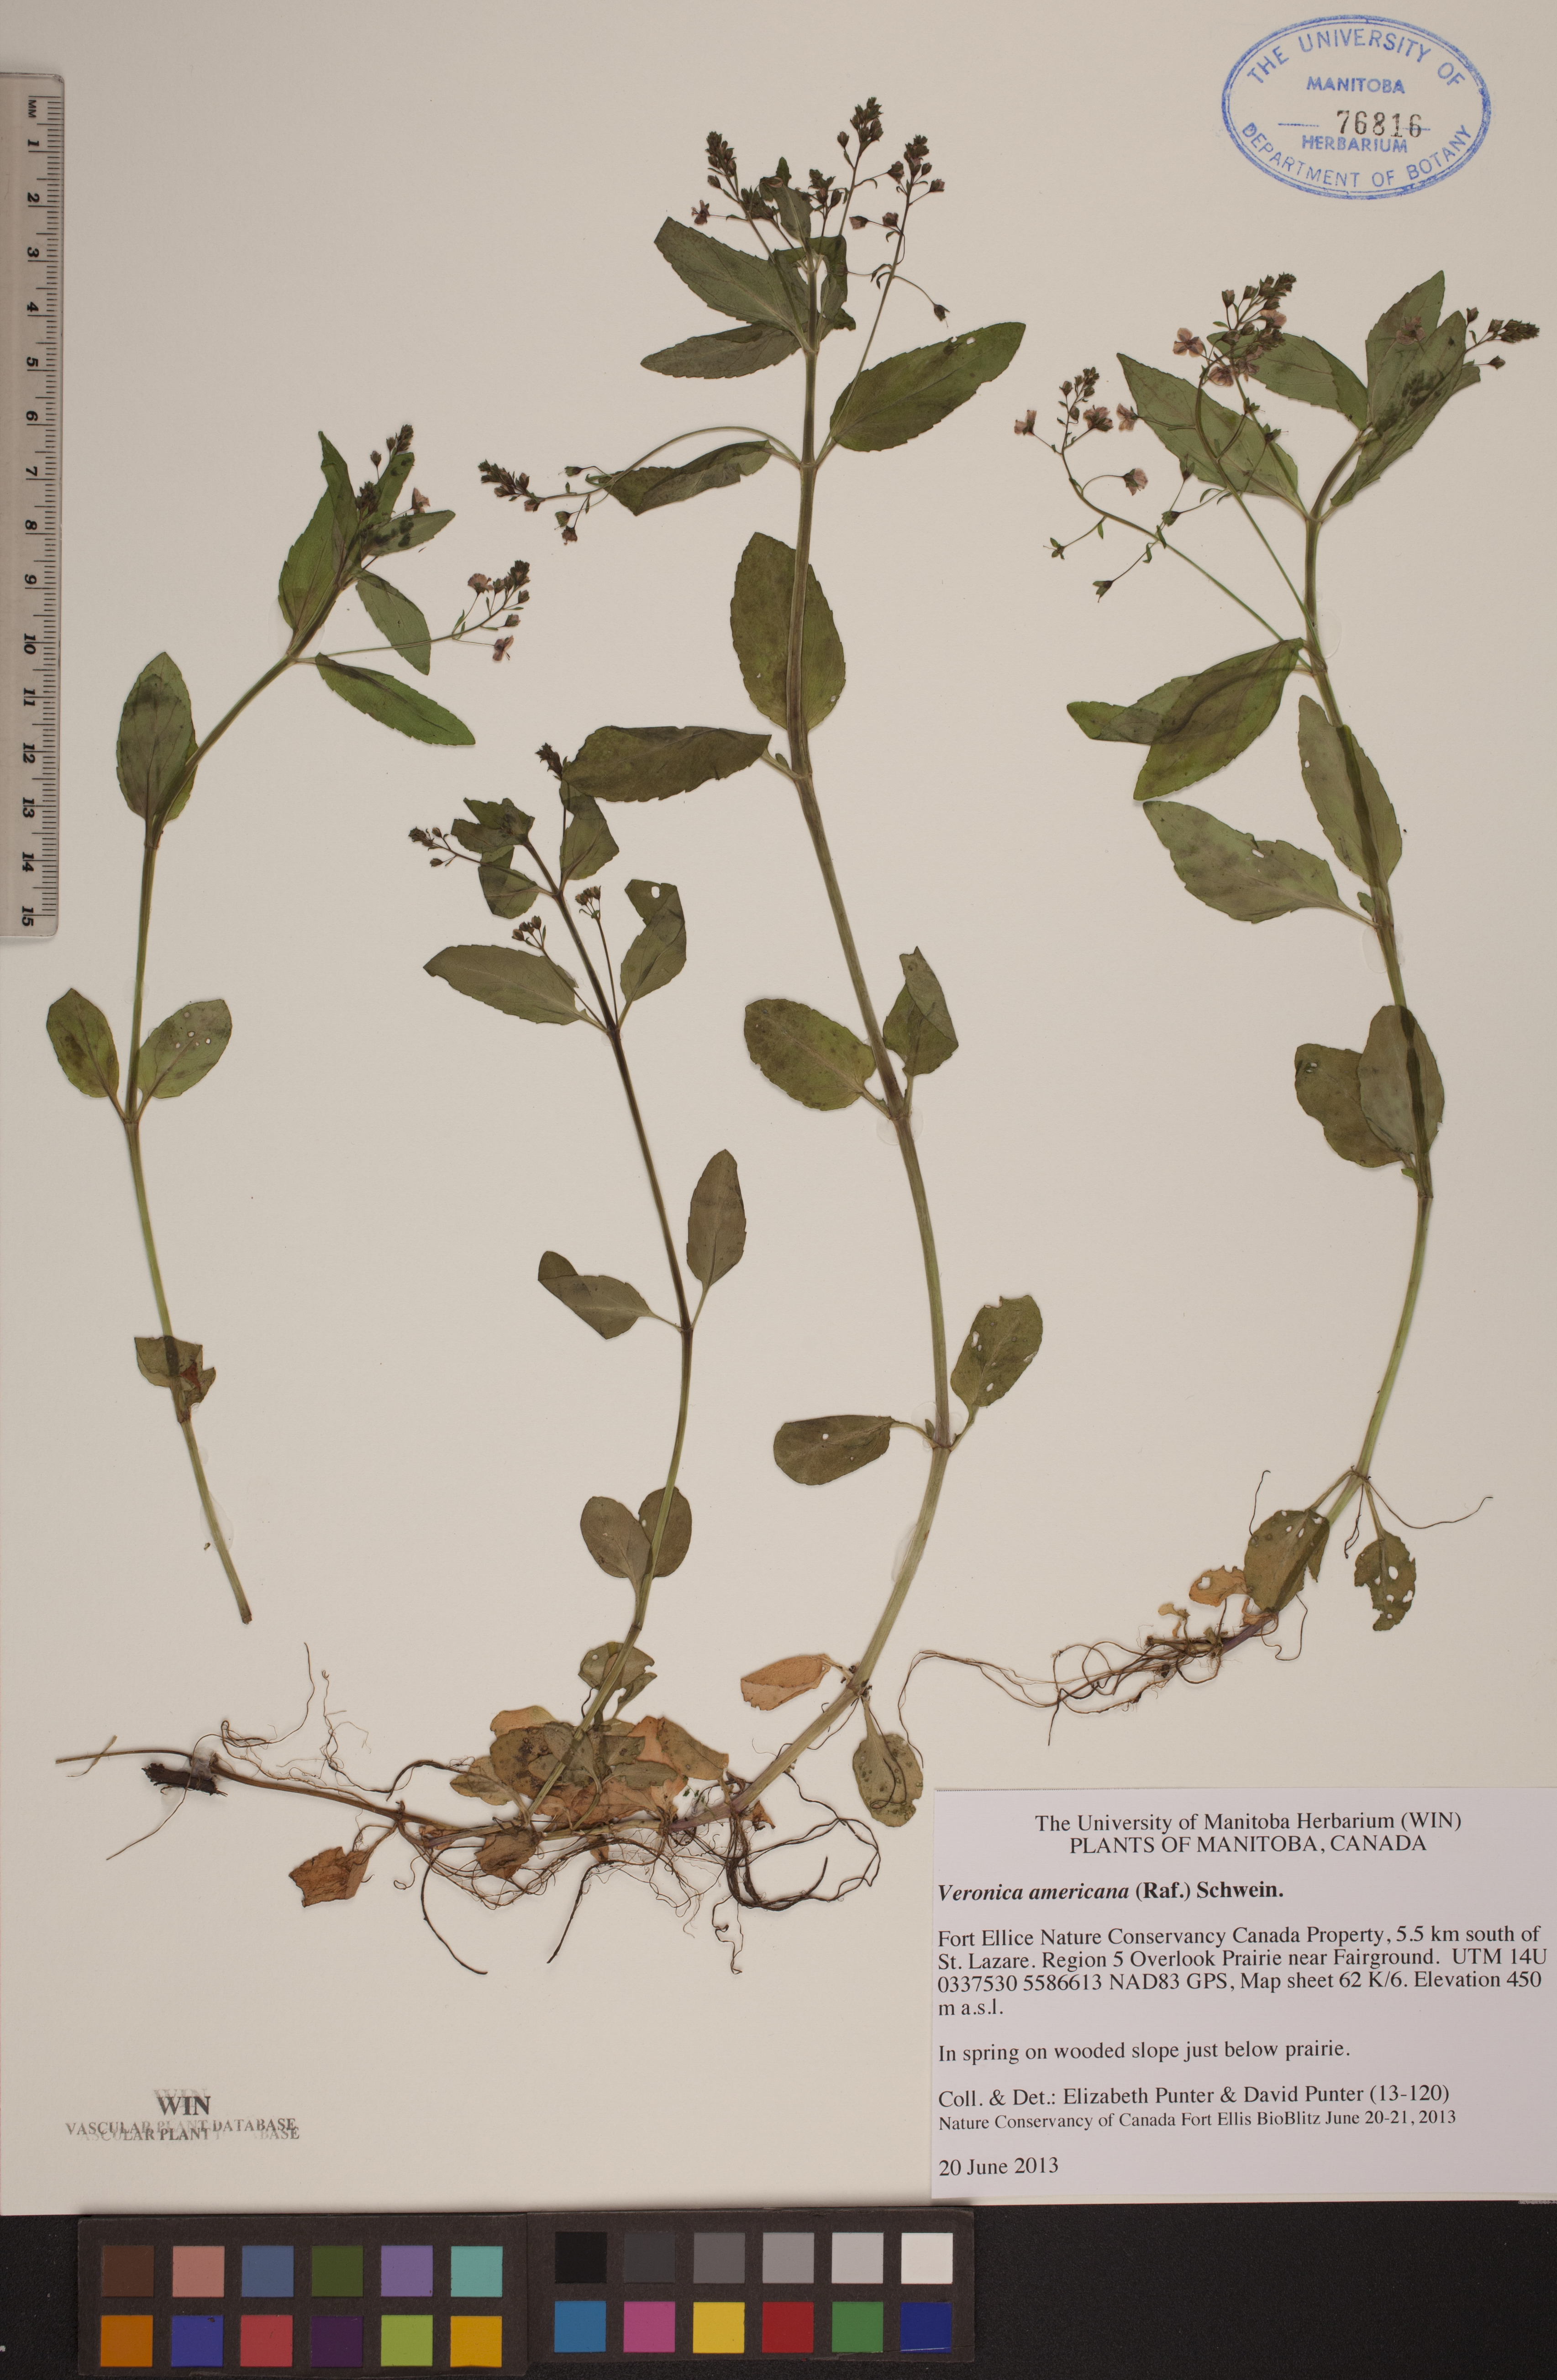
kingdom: Plantae
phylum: Tracheophyta
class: Magnoliopsida
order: Lamiales
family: Plantaginaceae
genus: Veronica
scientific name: Veronica americana
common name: American brooklime
